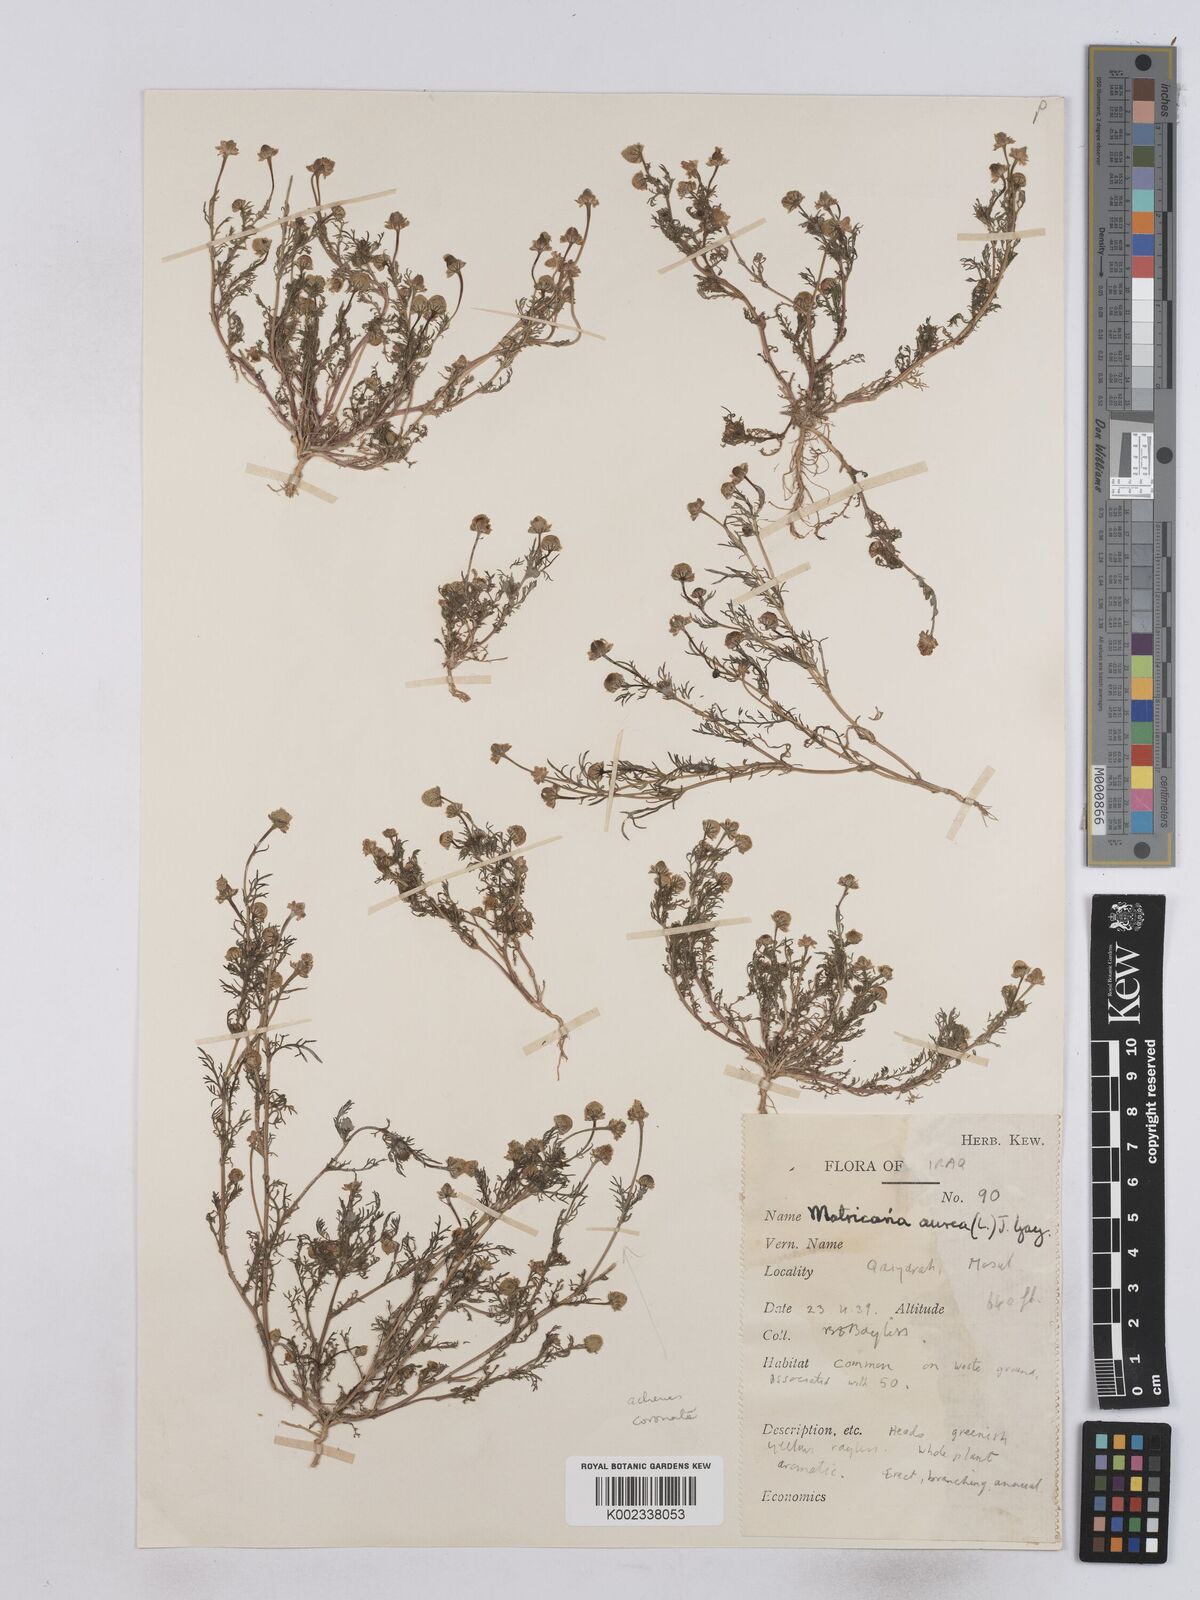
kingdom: Plantae
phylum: Tracheophyta
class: Magnoliopsida
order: Asterales
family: Asteraceae
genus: Matricaria
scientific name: Matricaria aurea
